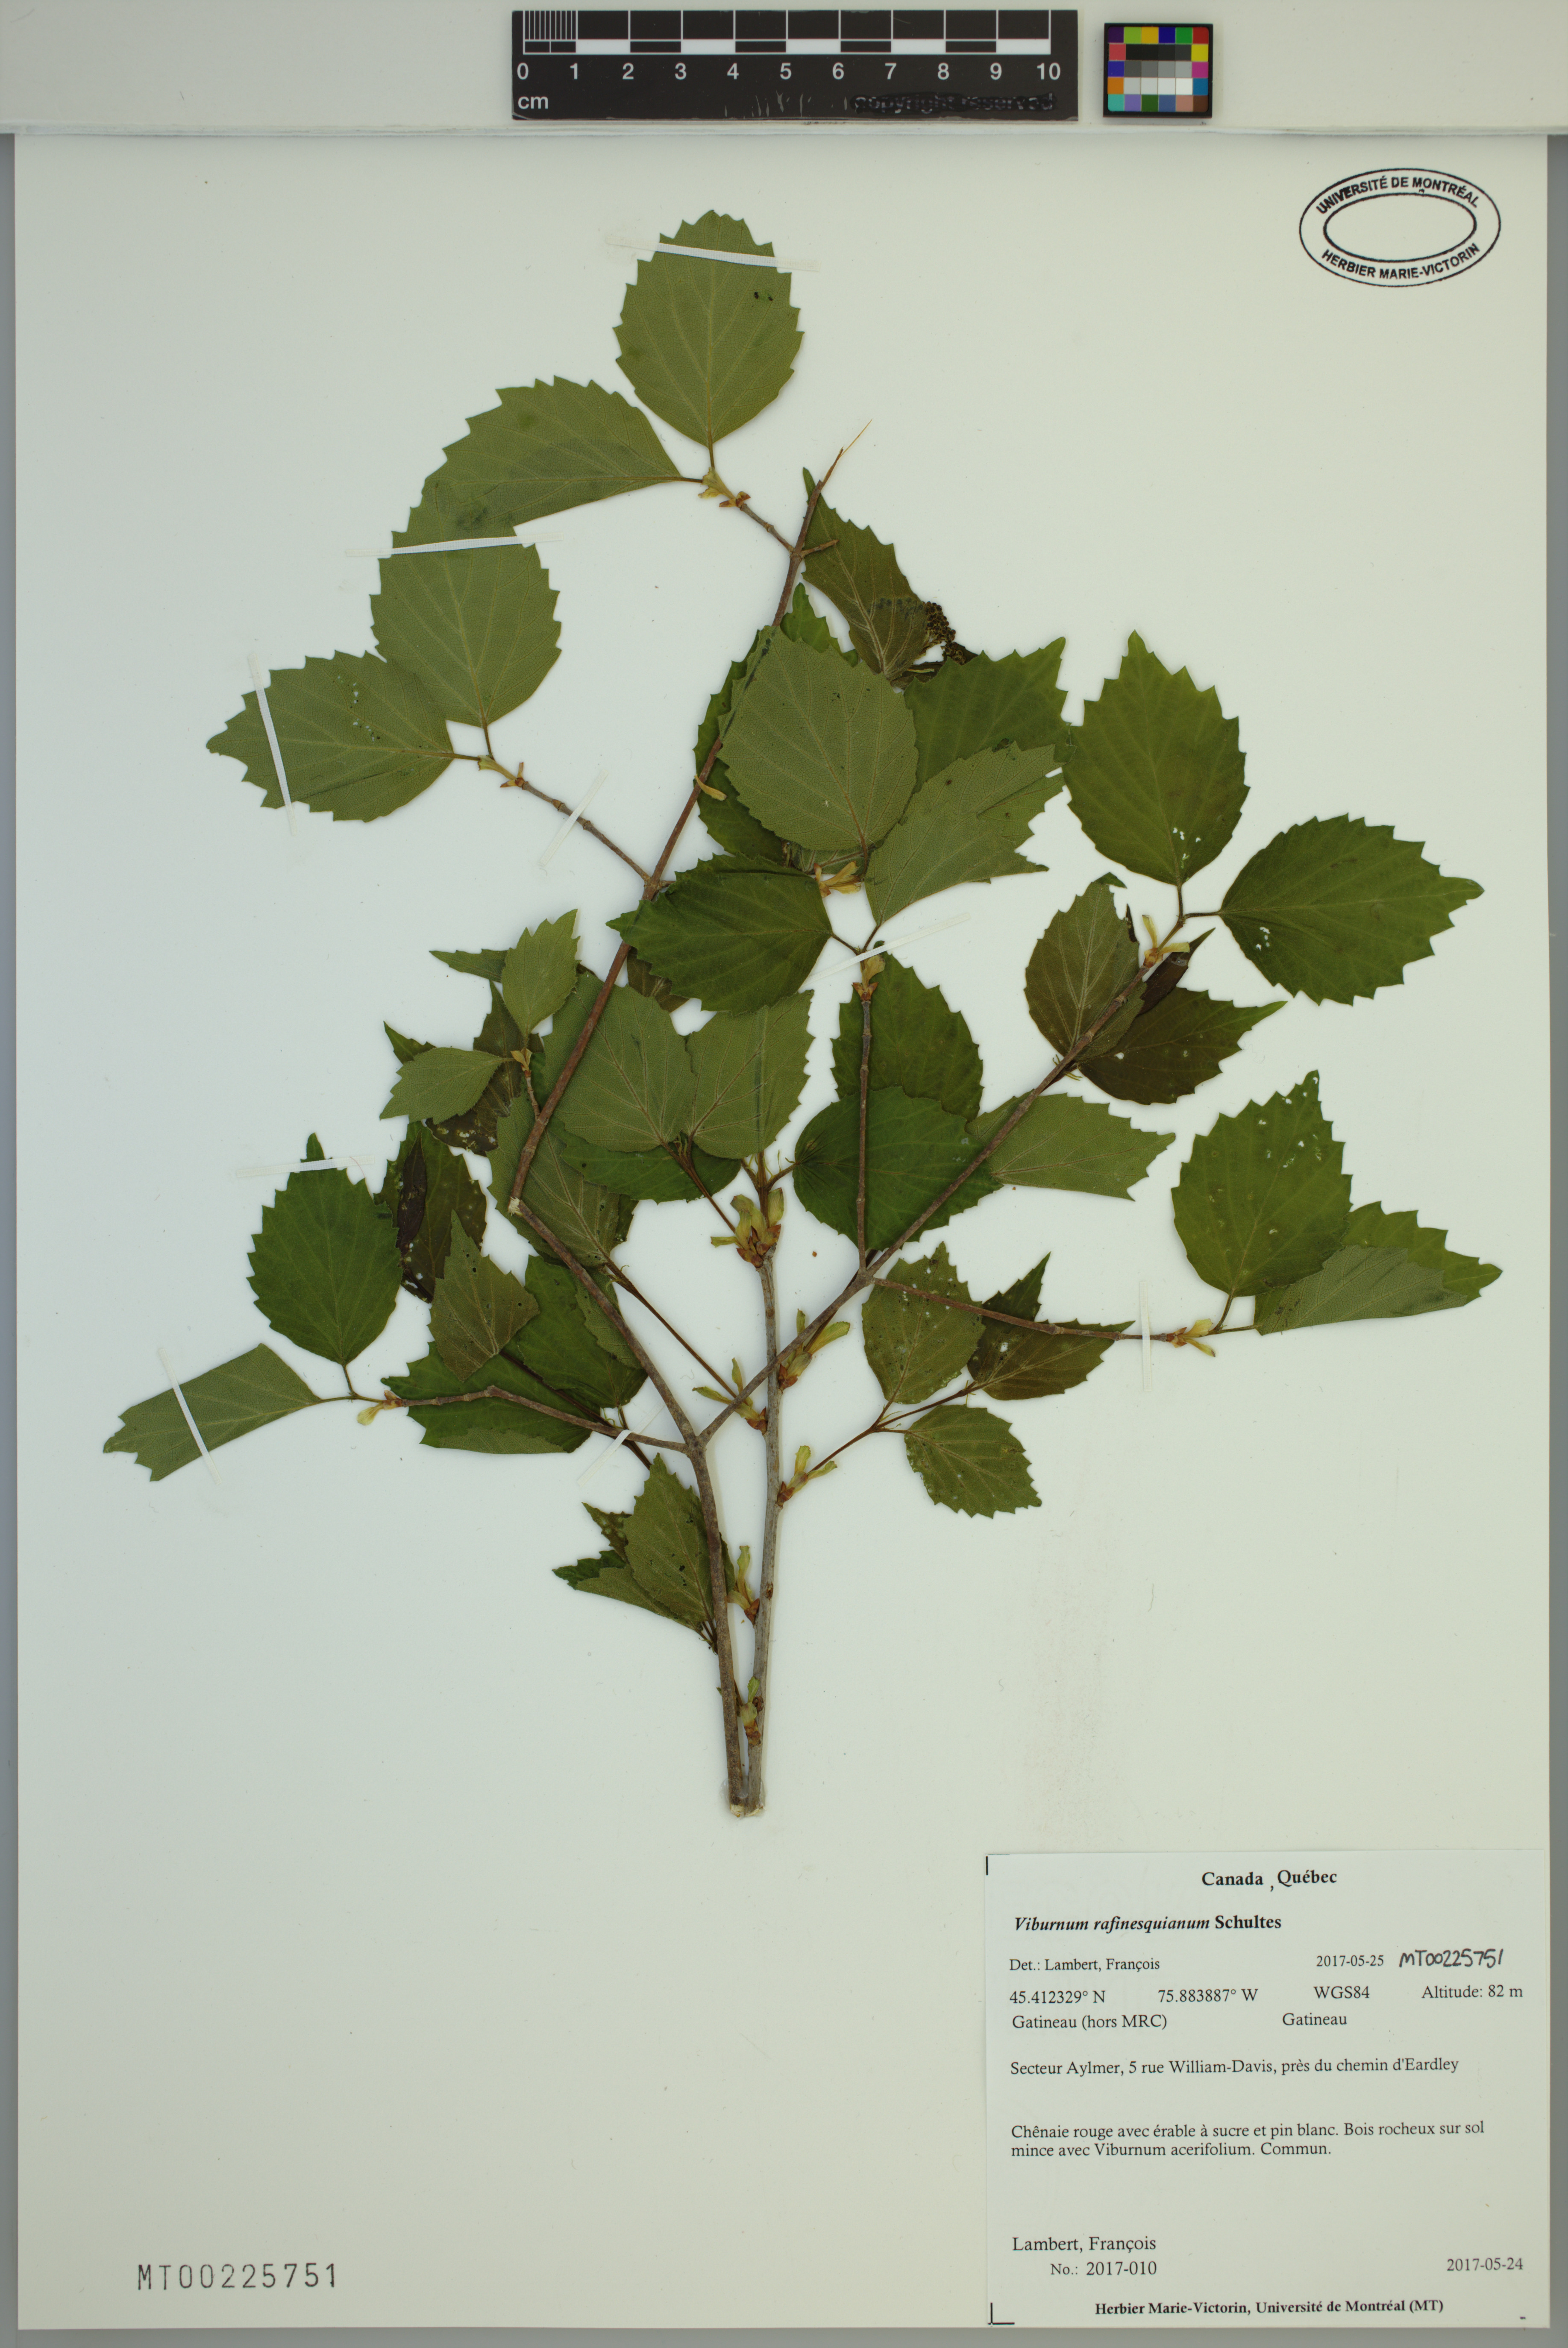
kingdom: Plantae
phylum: Tracheophyta
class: Magnoliopsida
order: Dipsacales
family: Viburnaceae
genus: Viburnum
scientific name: Viburnum rafinesqueanum
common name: Downy arrow-wood
